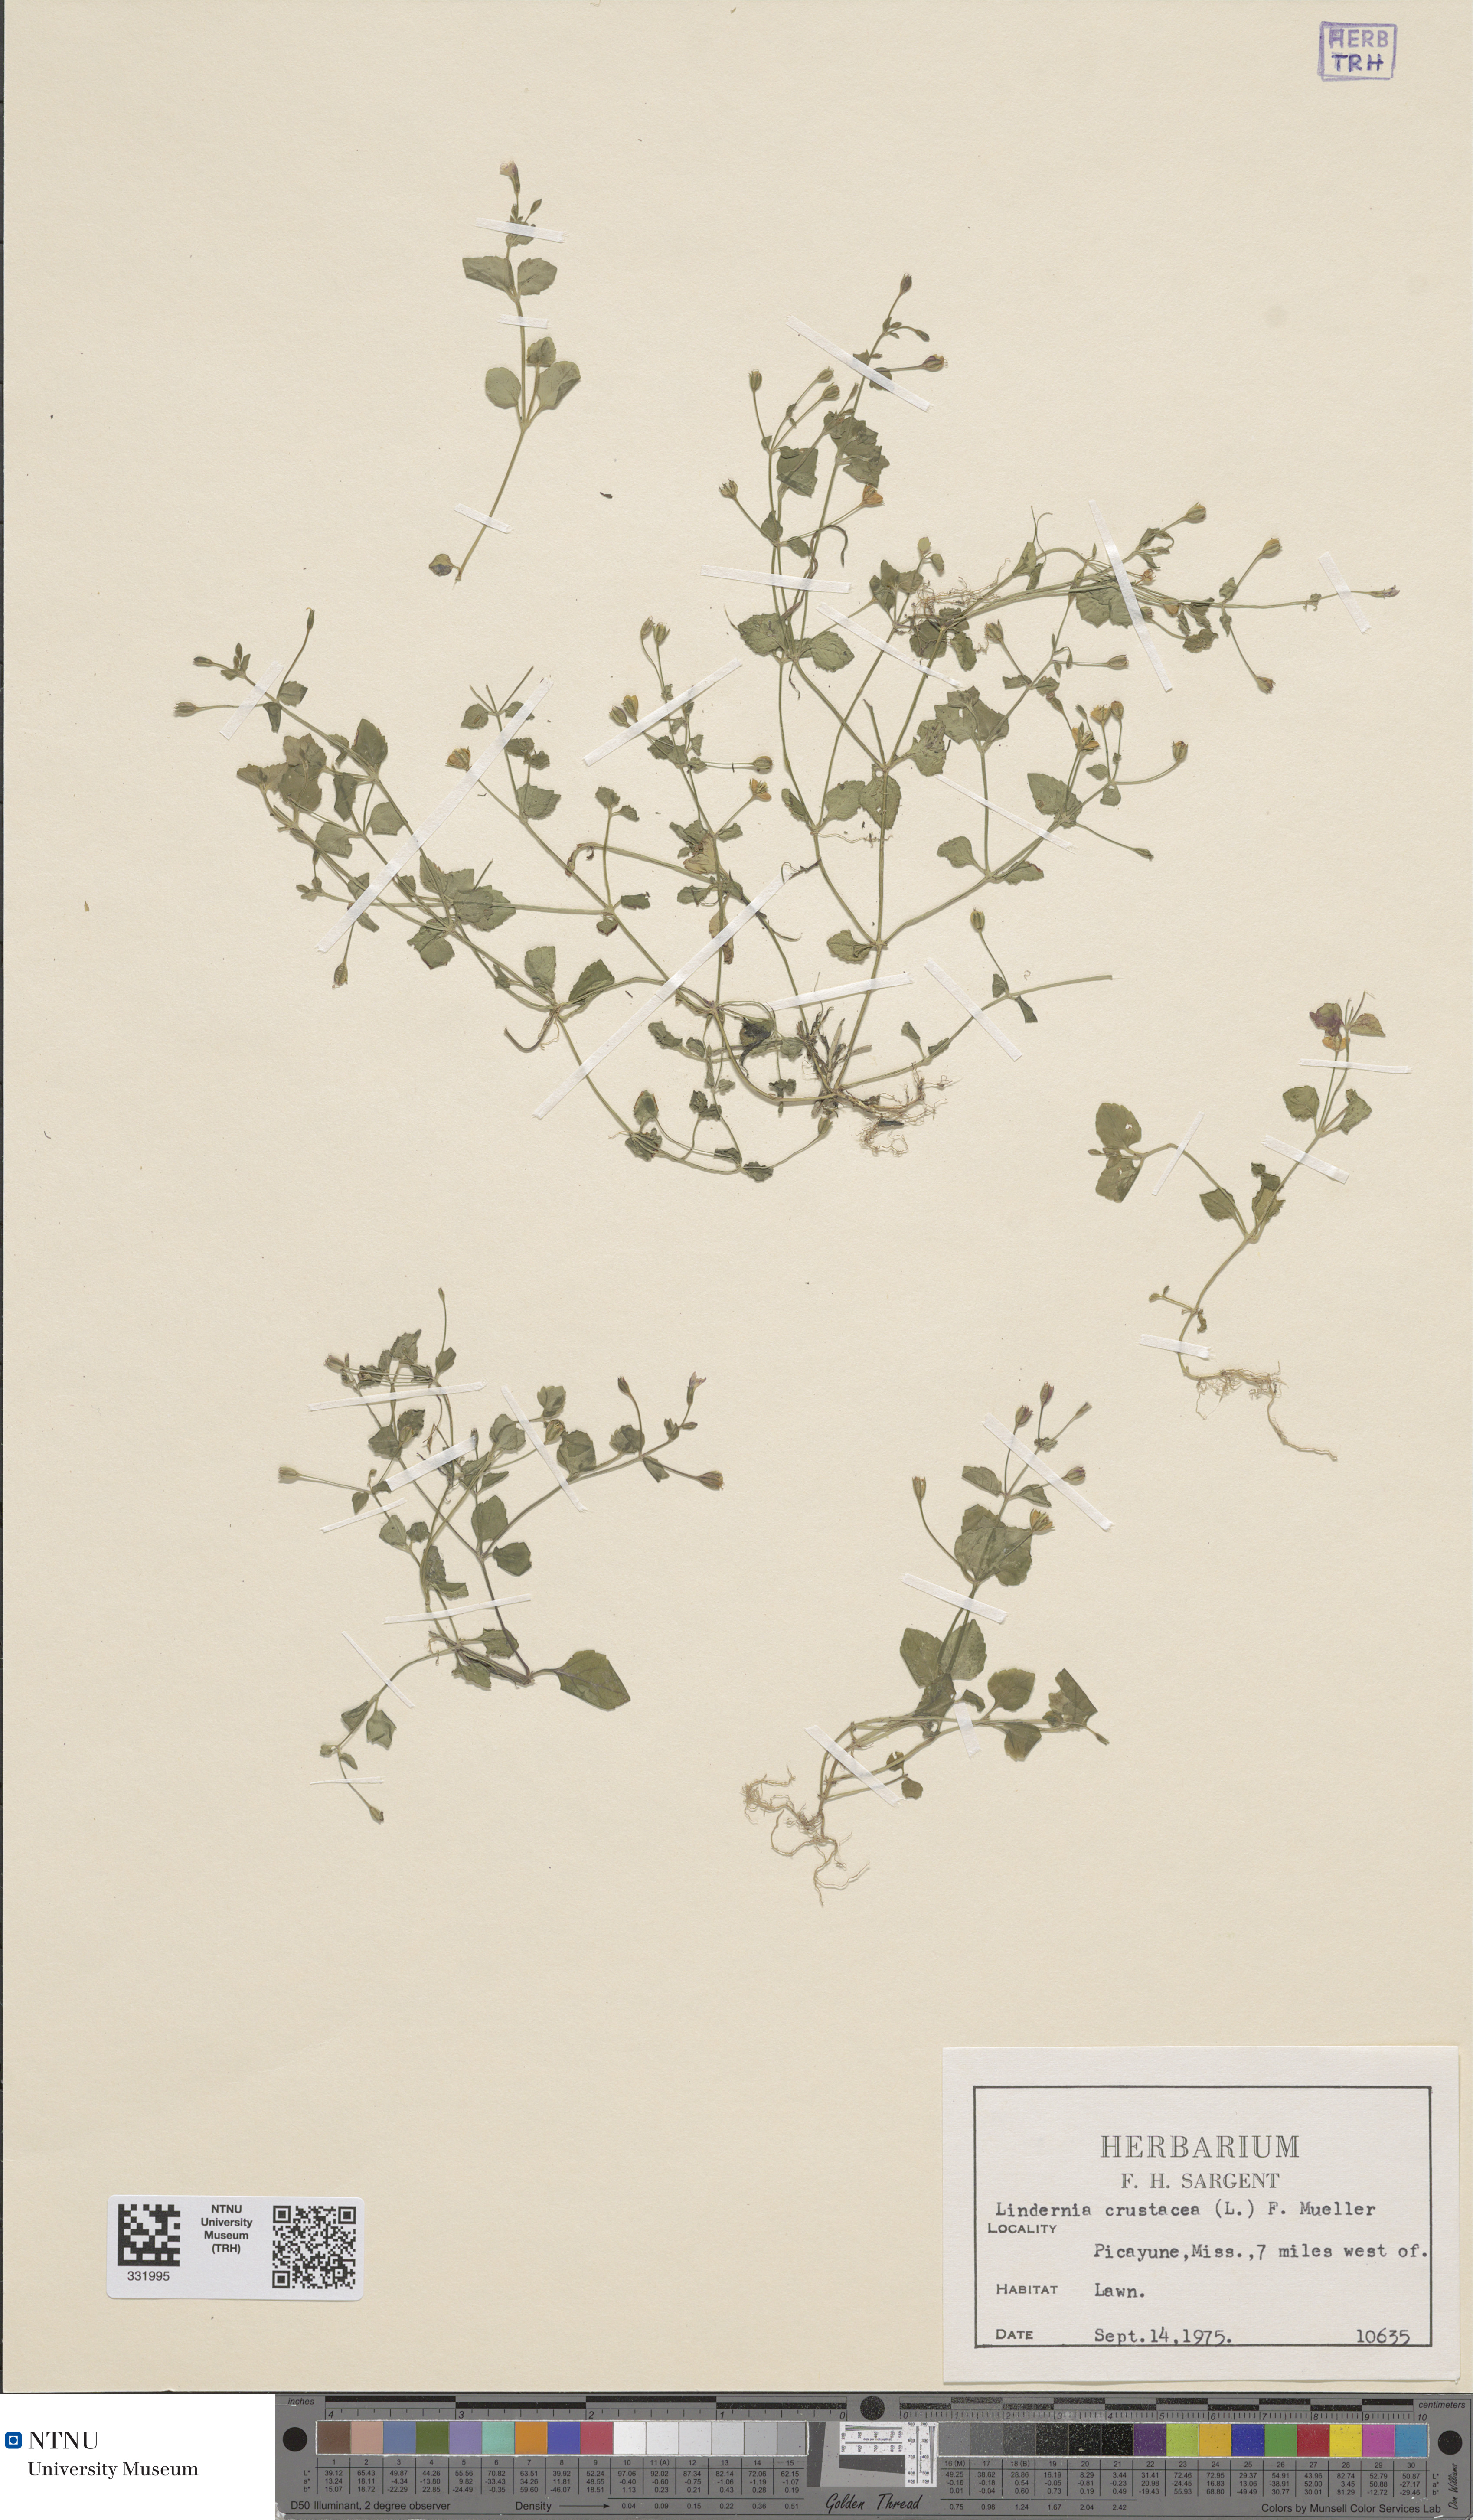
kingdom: Plantae
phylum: Tracheophyta
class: Magnoliopsida
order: Lamiales
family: Linderniaceae
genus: Torenia
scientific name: Torenia crustacea
